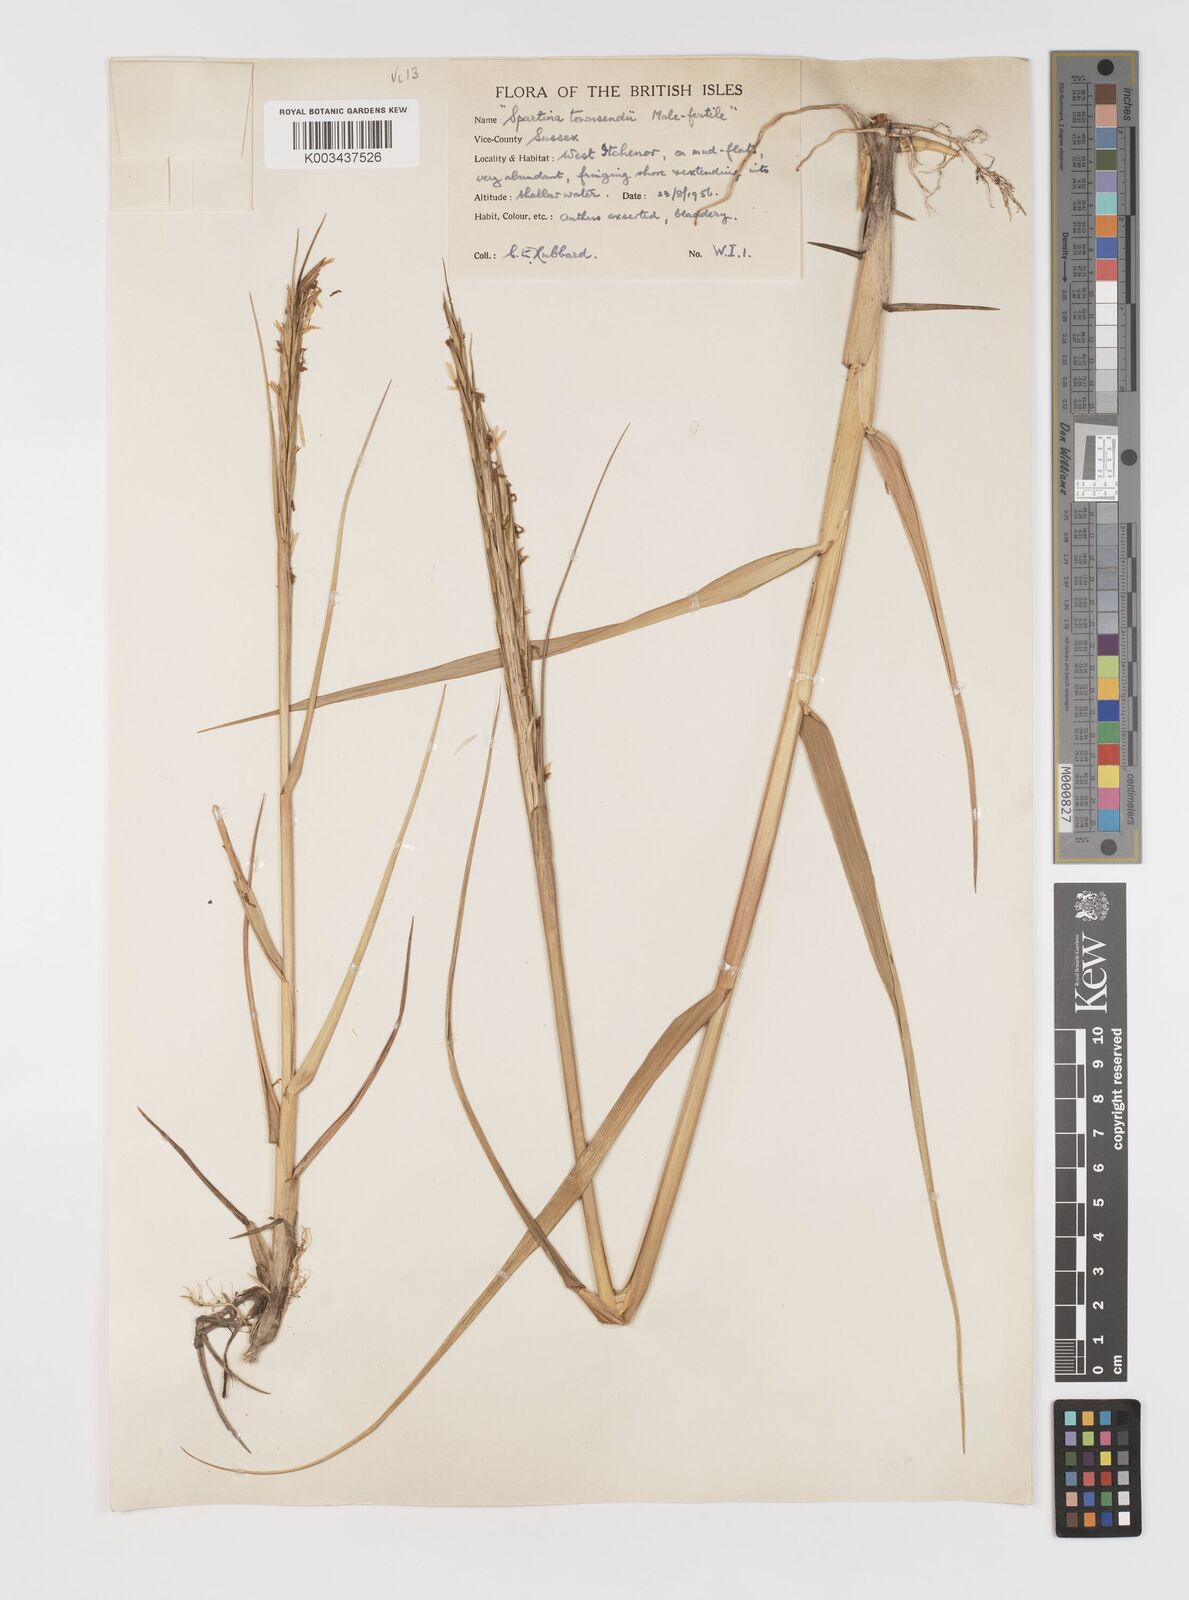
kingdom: Plantae
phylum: Tracheophyta
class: Liliopsida
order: Poales
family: Poaceae
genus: Sporobolus
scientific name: Sporobolus anglicus
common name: English cordgrass
